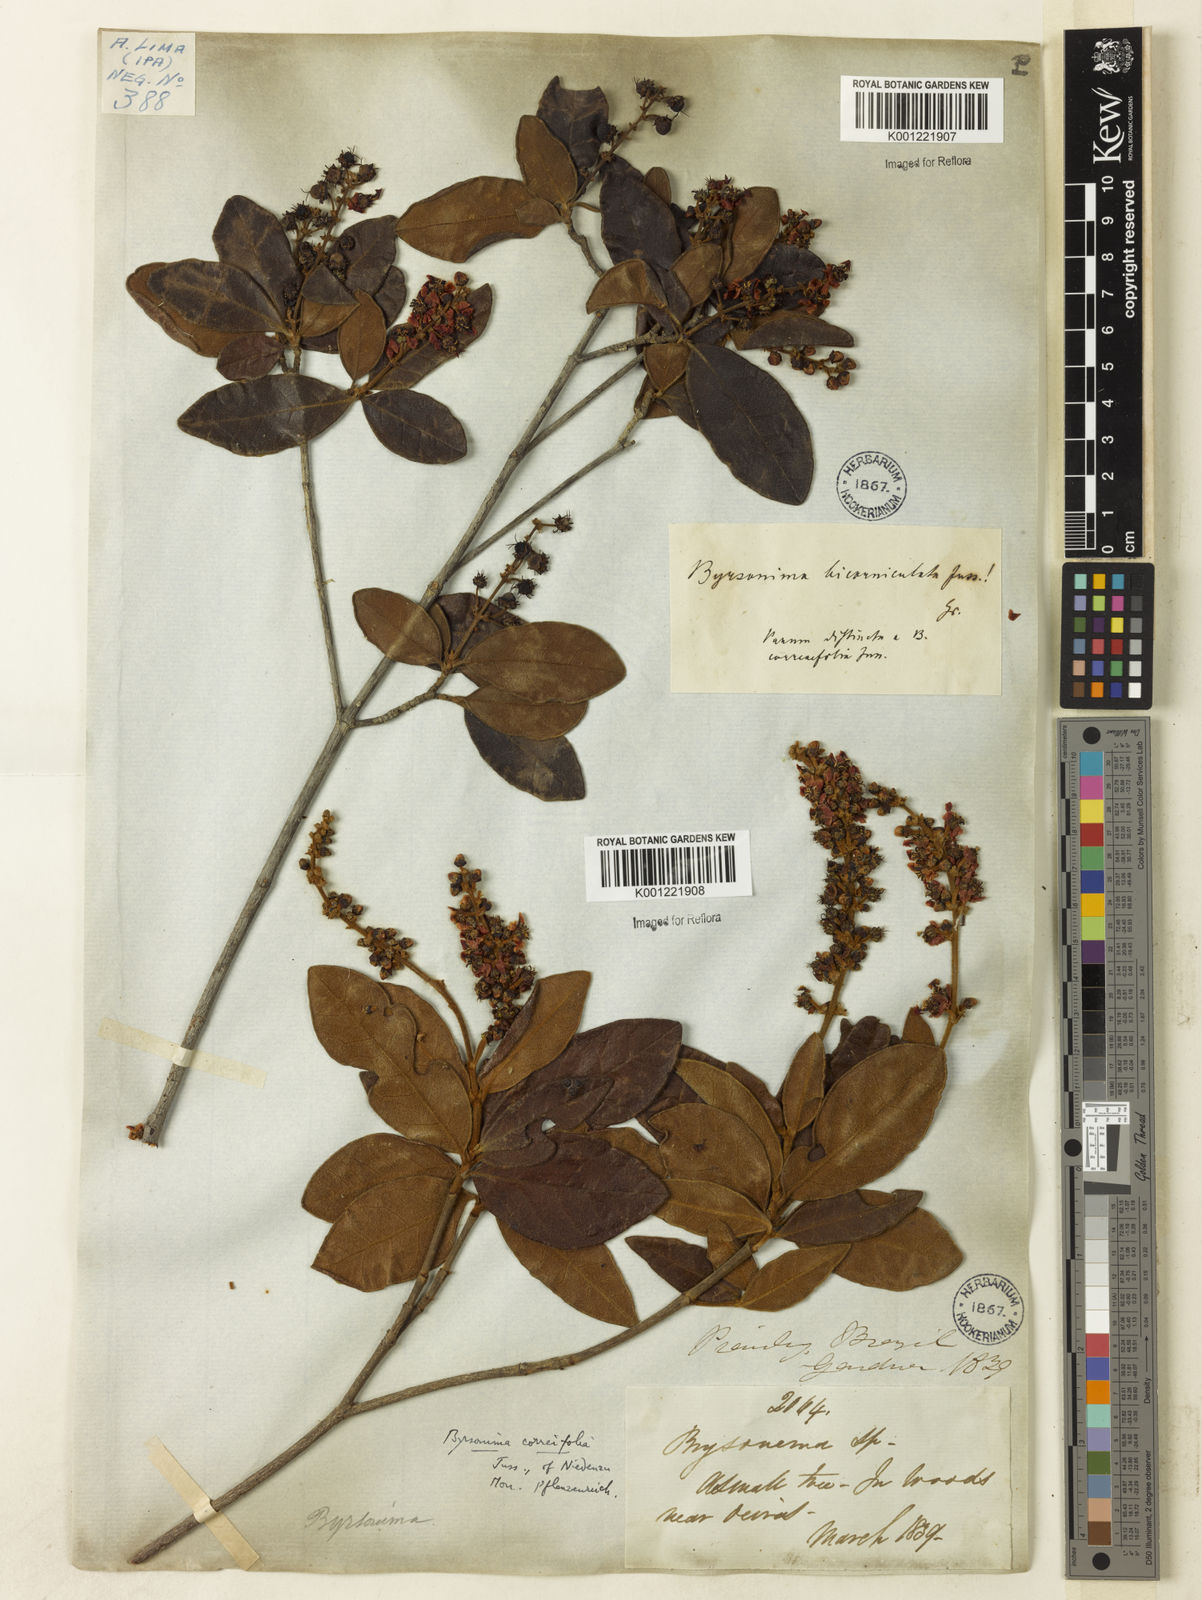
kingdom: Plantae
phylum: Tracheophyta
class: Magnoliopsida
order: Malpighiales
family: Malpighiaceae
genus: Byrsonima
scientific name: Byrsonima correifolia
